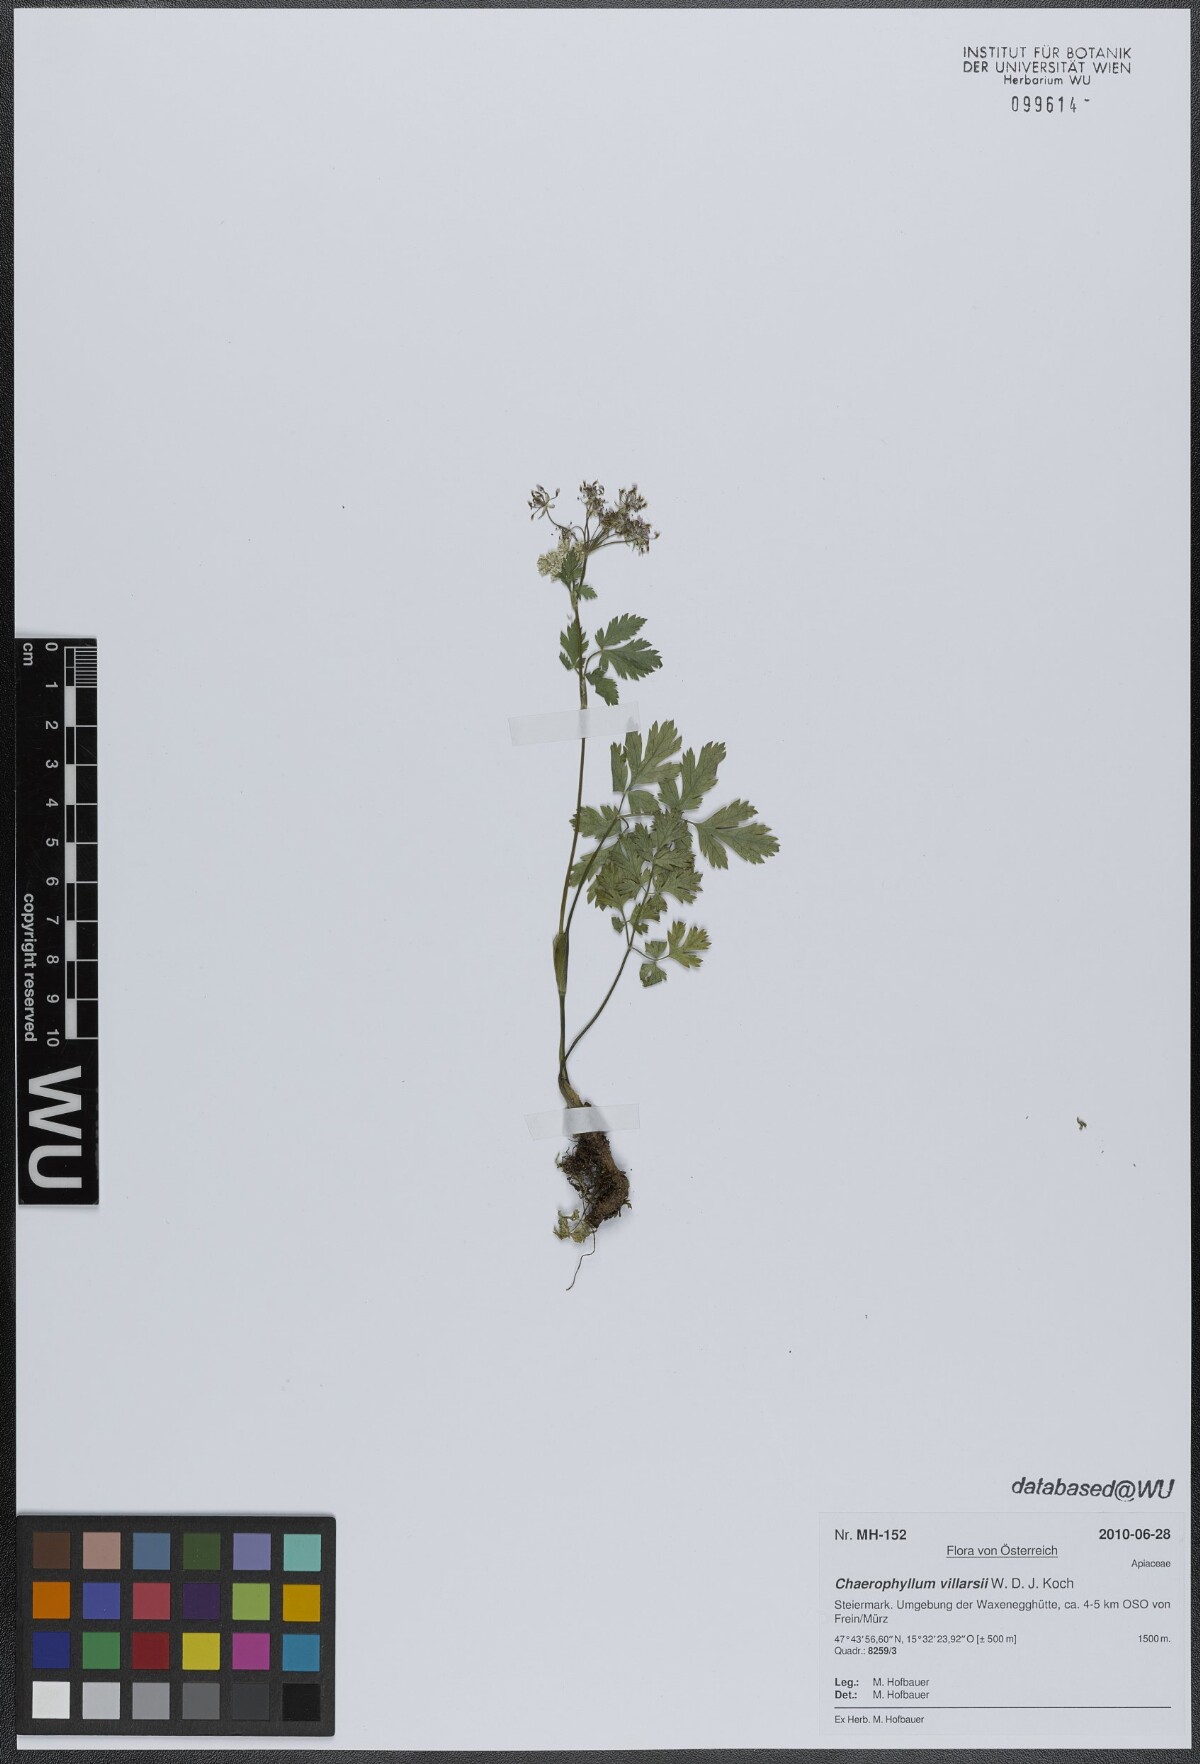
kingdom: Plantae
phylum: Tracheophyta
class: Magnoliopsida
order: Apiales
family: Apiaceae
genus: Chaerophyllum
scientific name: Chaerophyllum villarsii
